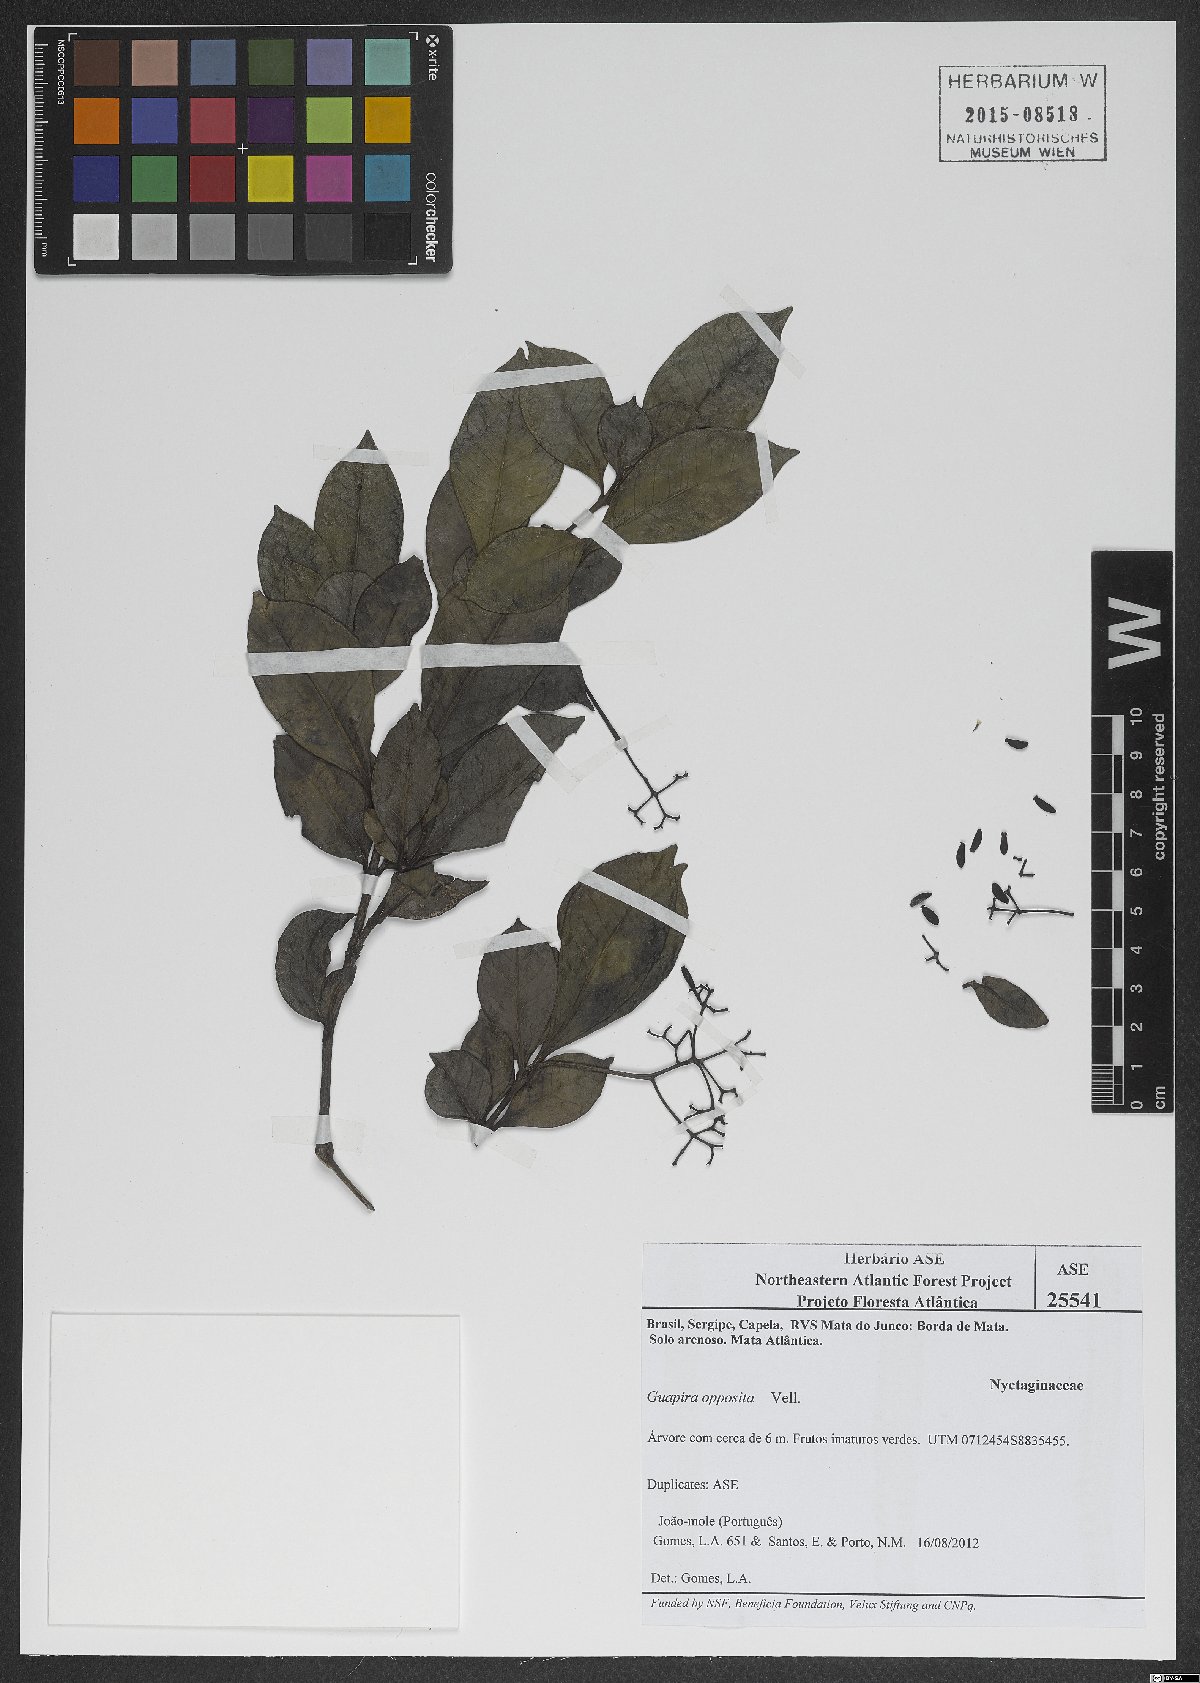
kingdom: Plantae
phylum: Tracheophyta
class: Magnoliopsida
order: Caryophyllales
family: Nyctaginaceae
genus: Guapira
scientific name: Guapira opposita
